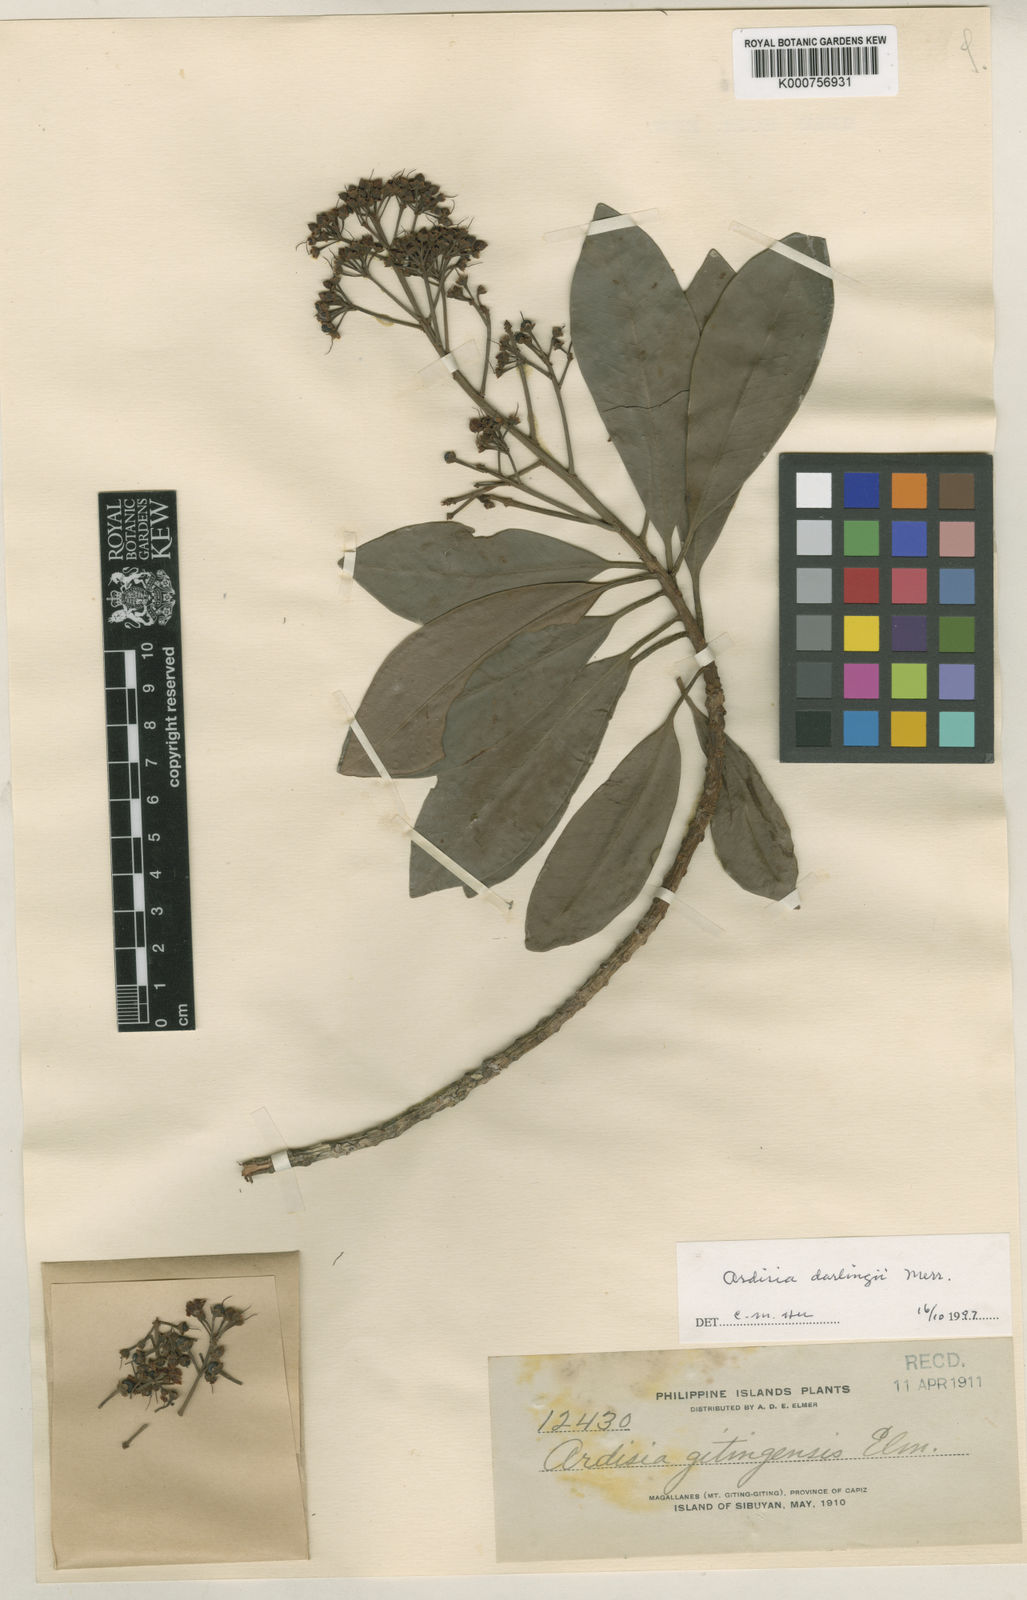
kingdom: Plantae
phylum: Tracheophyta
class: Magnoliopsida
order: Ericales
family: Primulaceae
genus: Ardisia
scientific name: Ardisia darlingii
